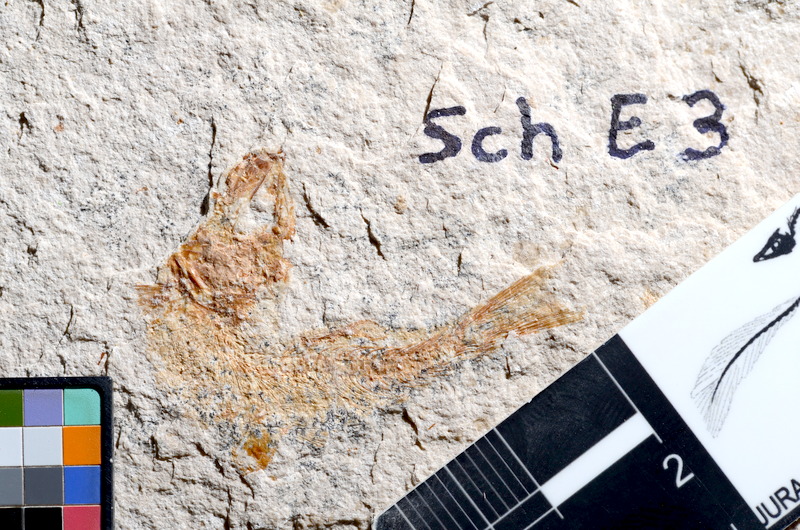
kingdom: Animalia
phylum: Chordata
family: Ascalaboidae
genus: Tharsis
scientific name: Tharsis dubius
